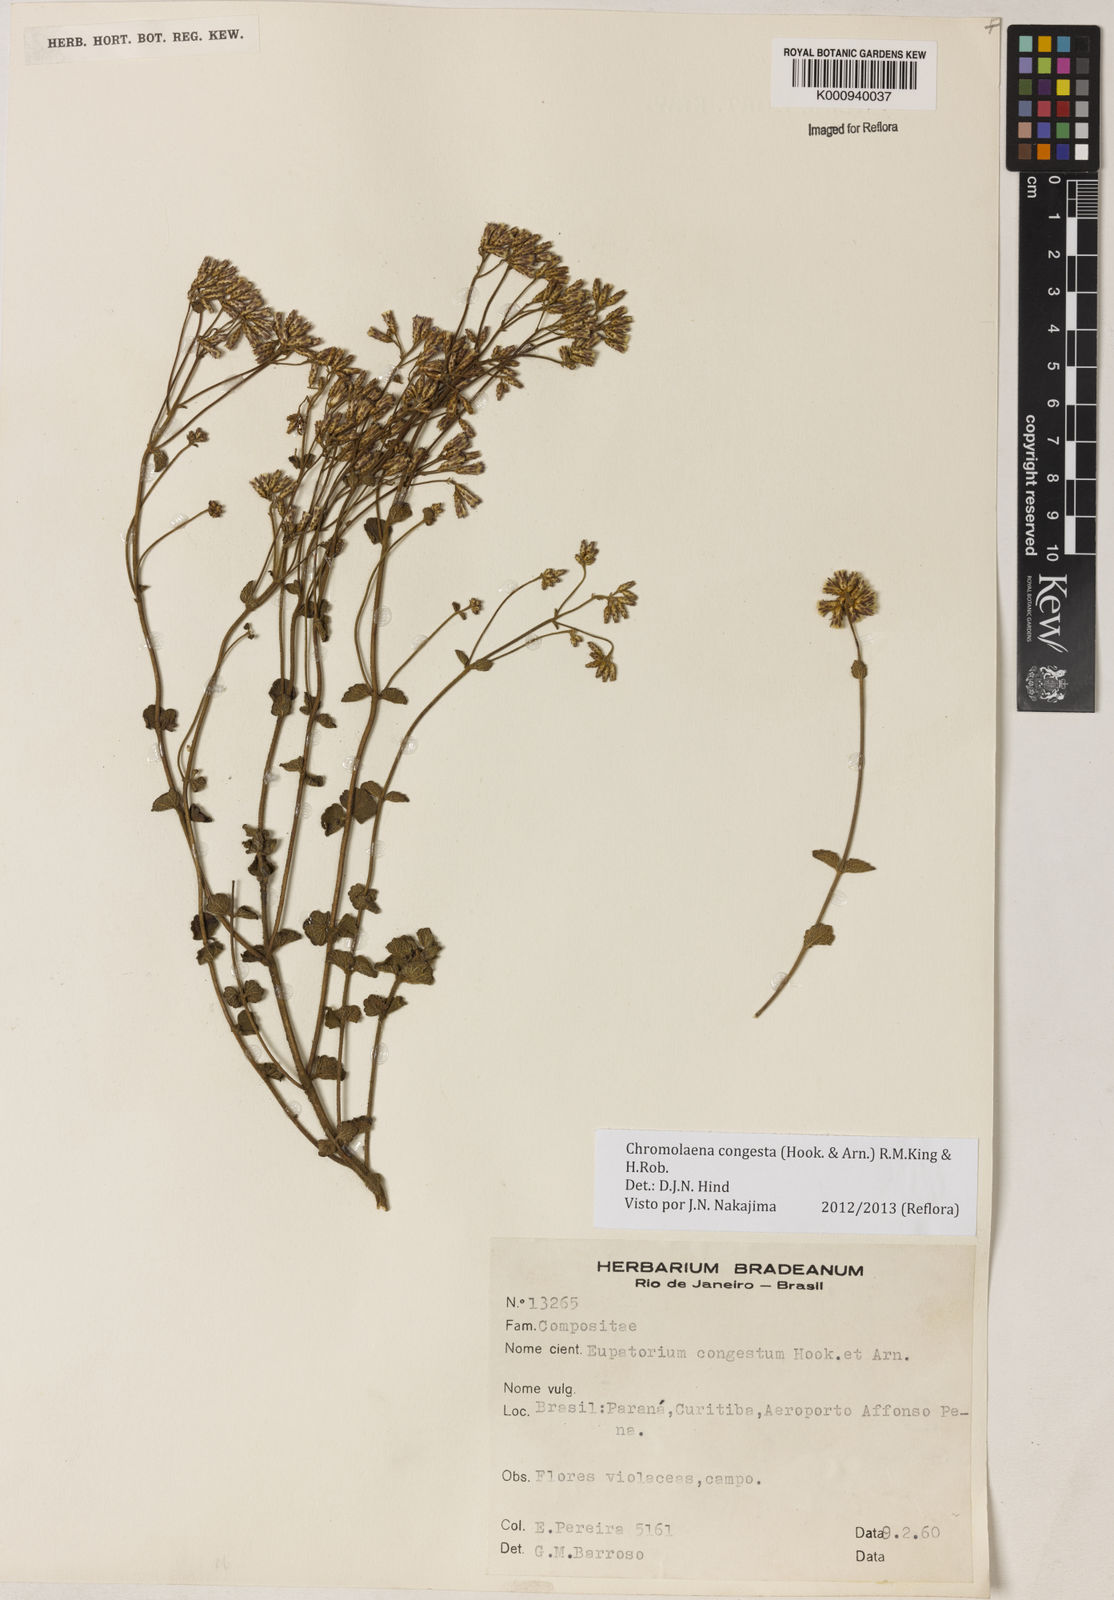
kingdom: Plantae
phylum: Tracheophyta
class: Magnoliopsida
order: Asterales
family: Asteraceae
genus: Chromolaena
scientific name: Chromolaena congesta
